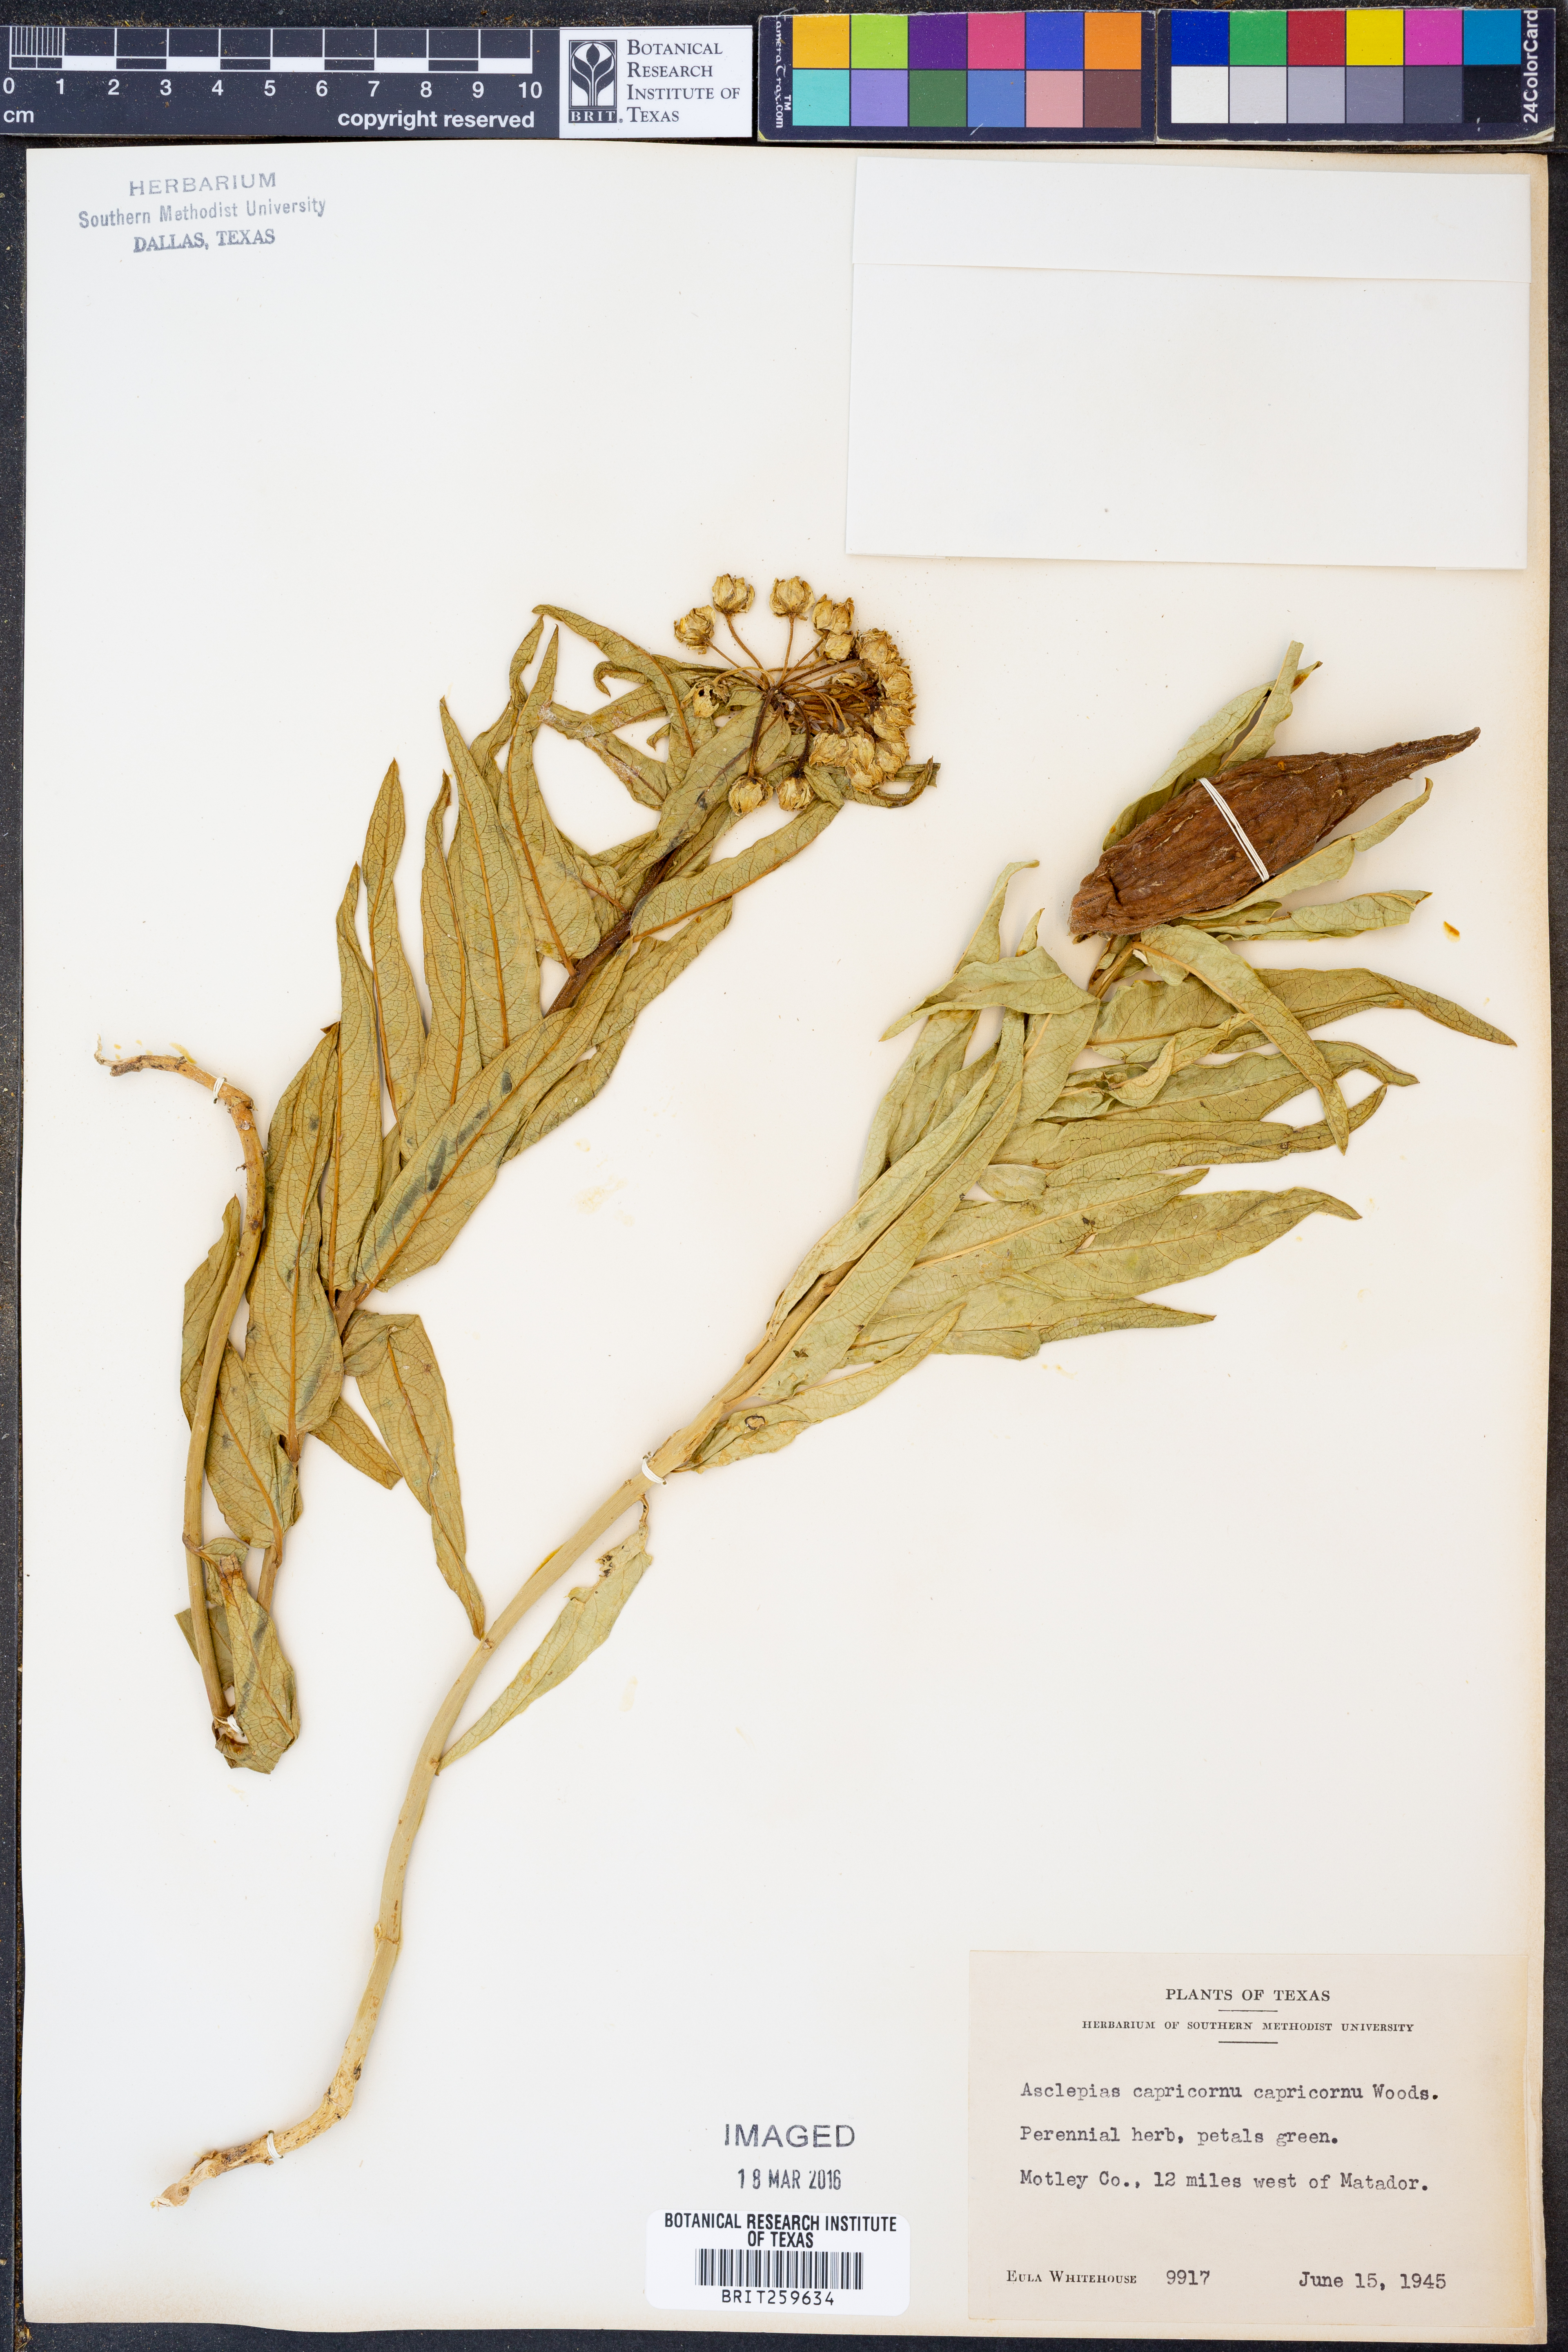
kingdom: Plantae
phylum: Tracheophyta
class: Magnoliopsida
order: Gentianales
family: Apocynaceae
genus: Asclepias
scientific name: Asclepias asperula
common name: Antelope horns
